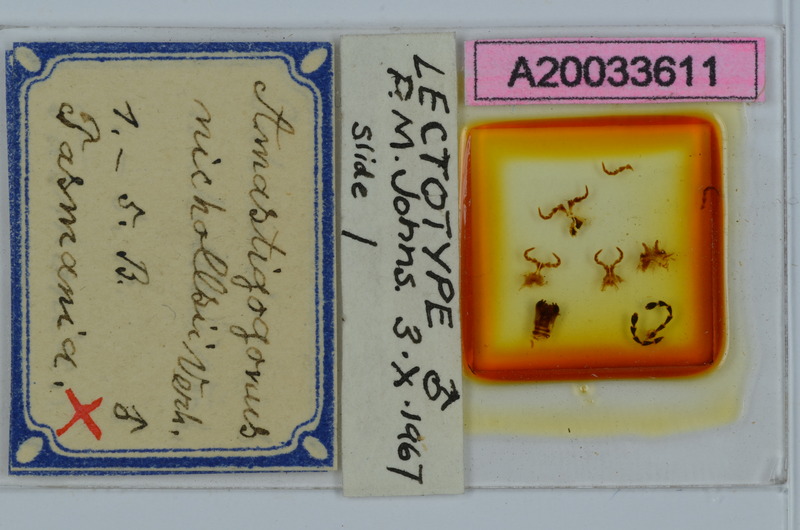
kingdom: Animalia
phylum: Arthropoda
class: Diplopoda
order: Spirostreptida
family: Iulomorphidae
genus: Amastigogonus
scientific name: Amastigogonus hardyi
